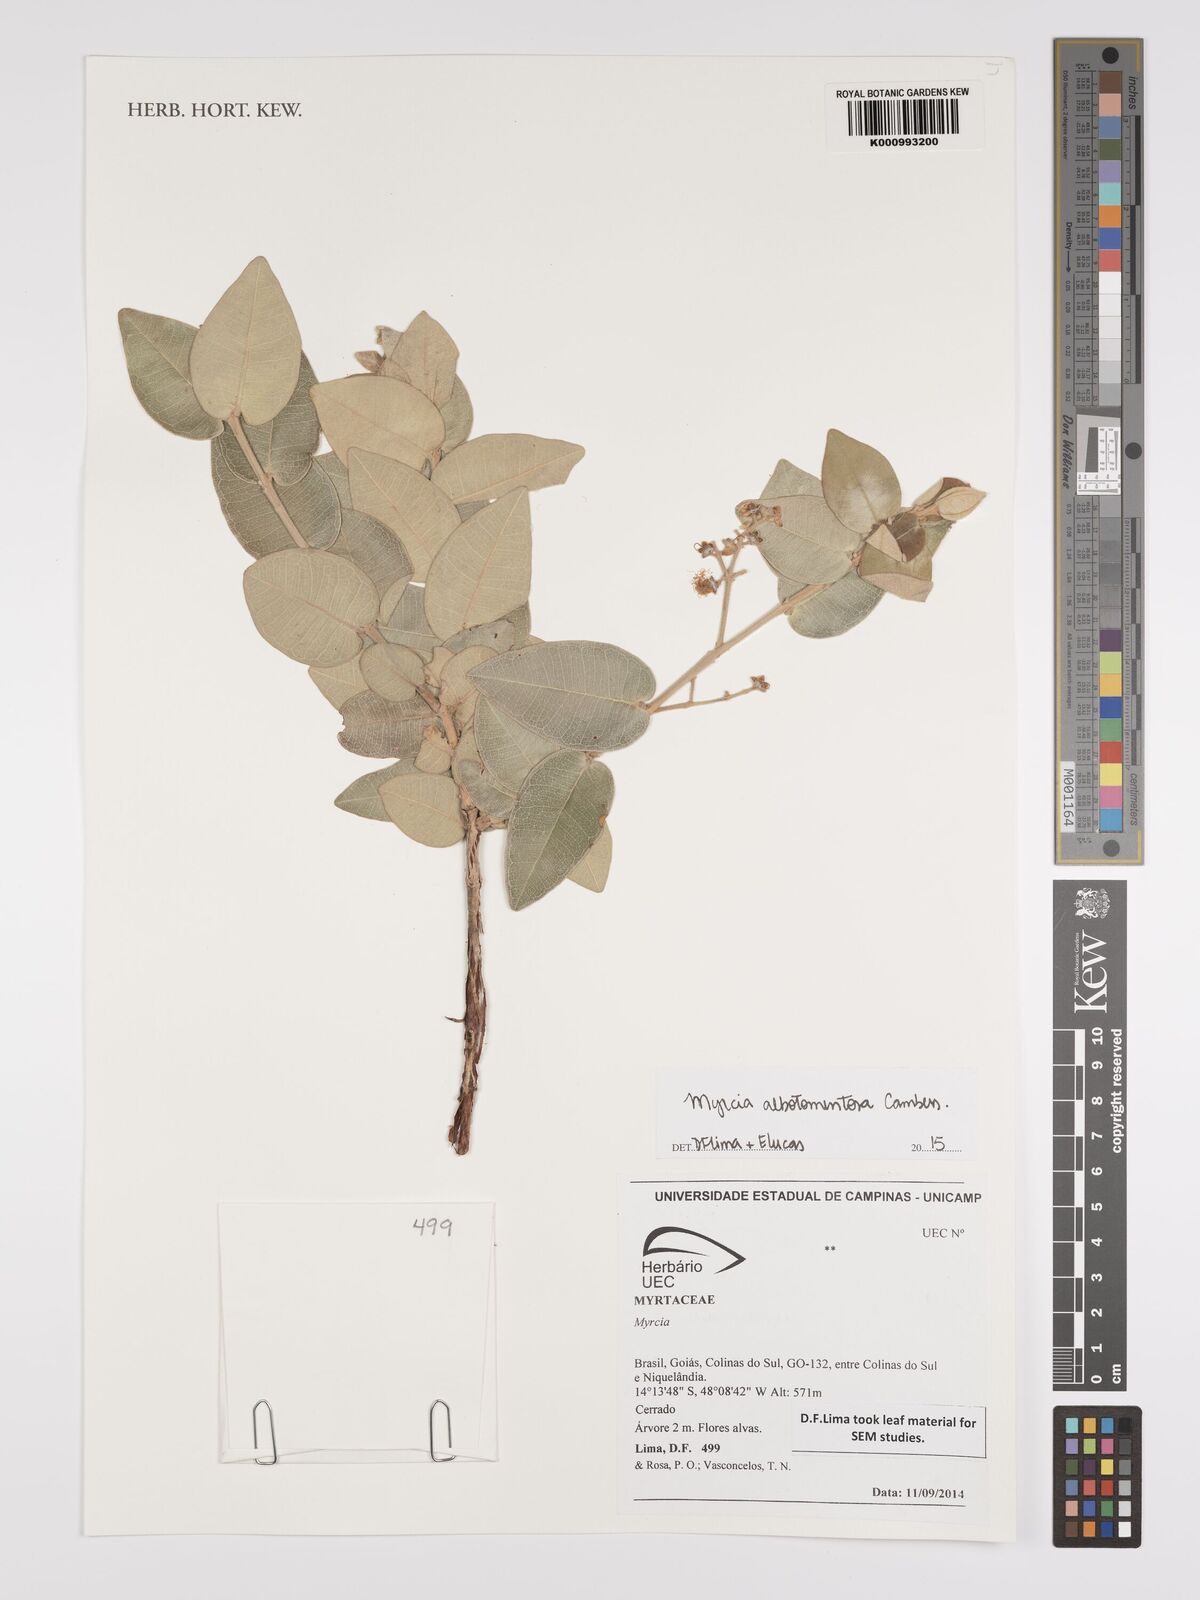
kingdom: Plantae
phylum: Tracheophyta
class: Magnoliopsida
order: Myrtales
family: Myrtaceae
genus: Myrcia
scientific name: Myrcia albotomentosa
